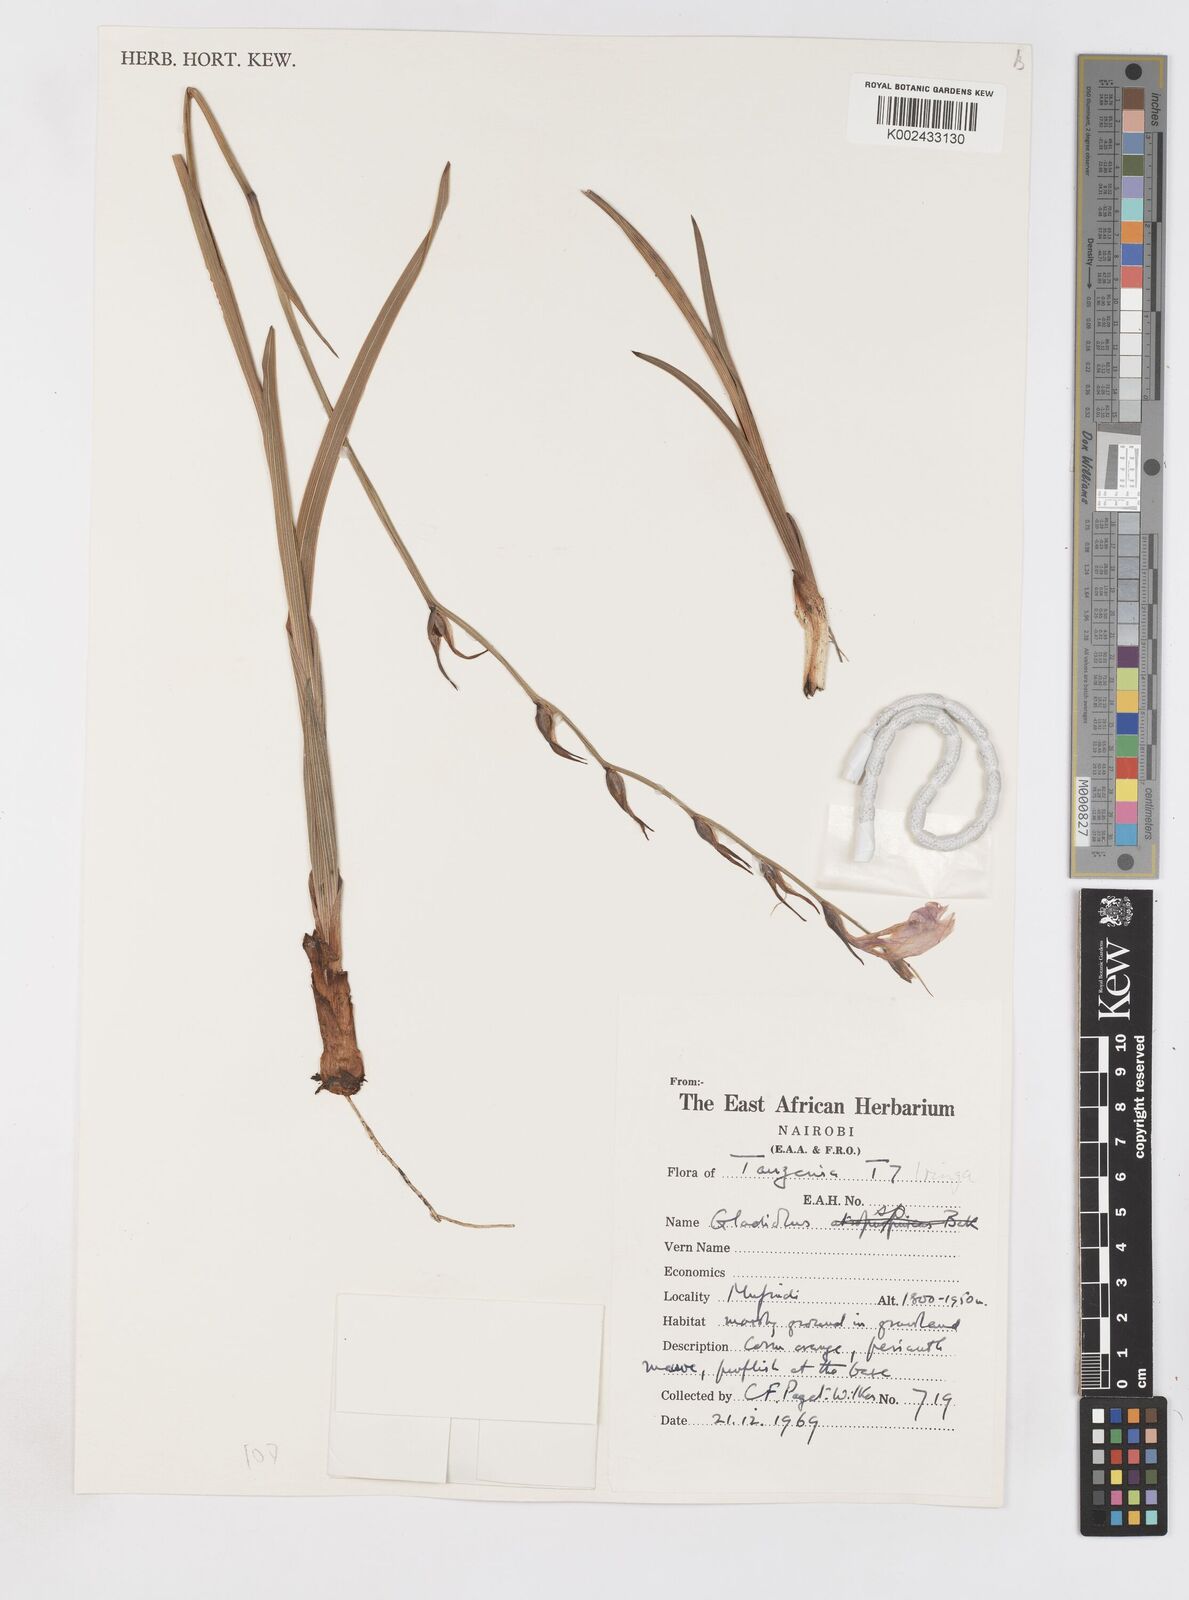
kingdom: Plantae
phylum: Tracheophyta
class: Liliopsida
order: Asparagales
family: Iridaceae
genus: Gladiolus
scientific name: Gladiolus laxiflorus
